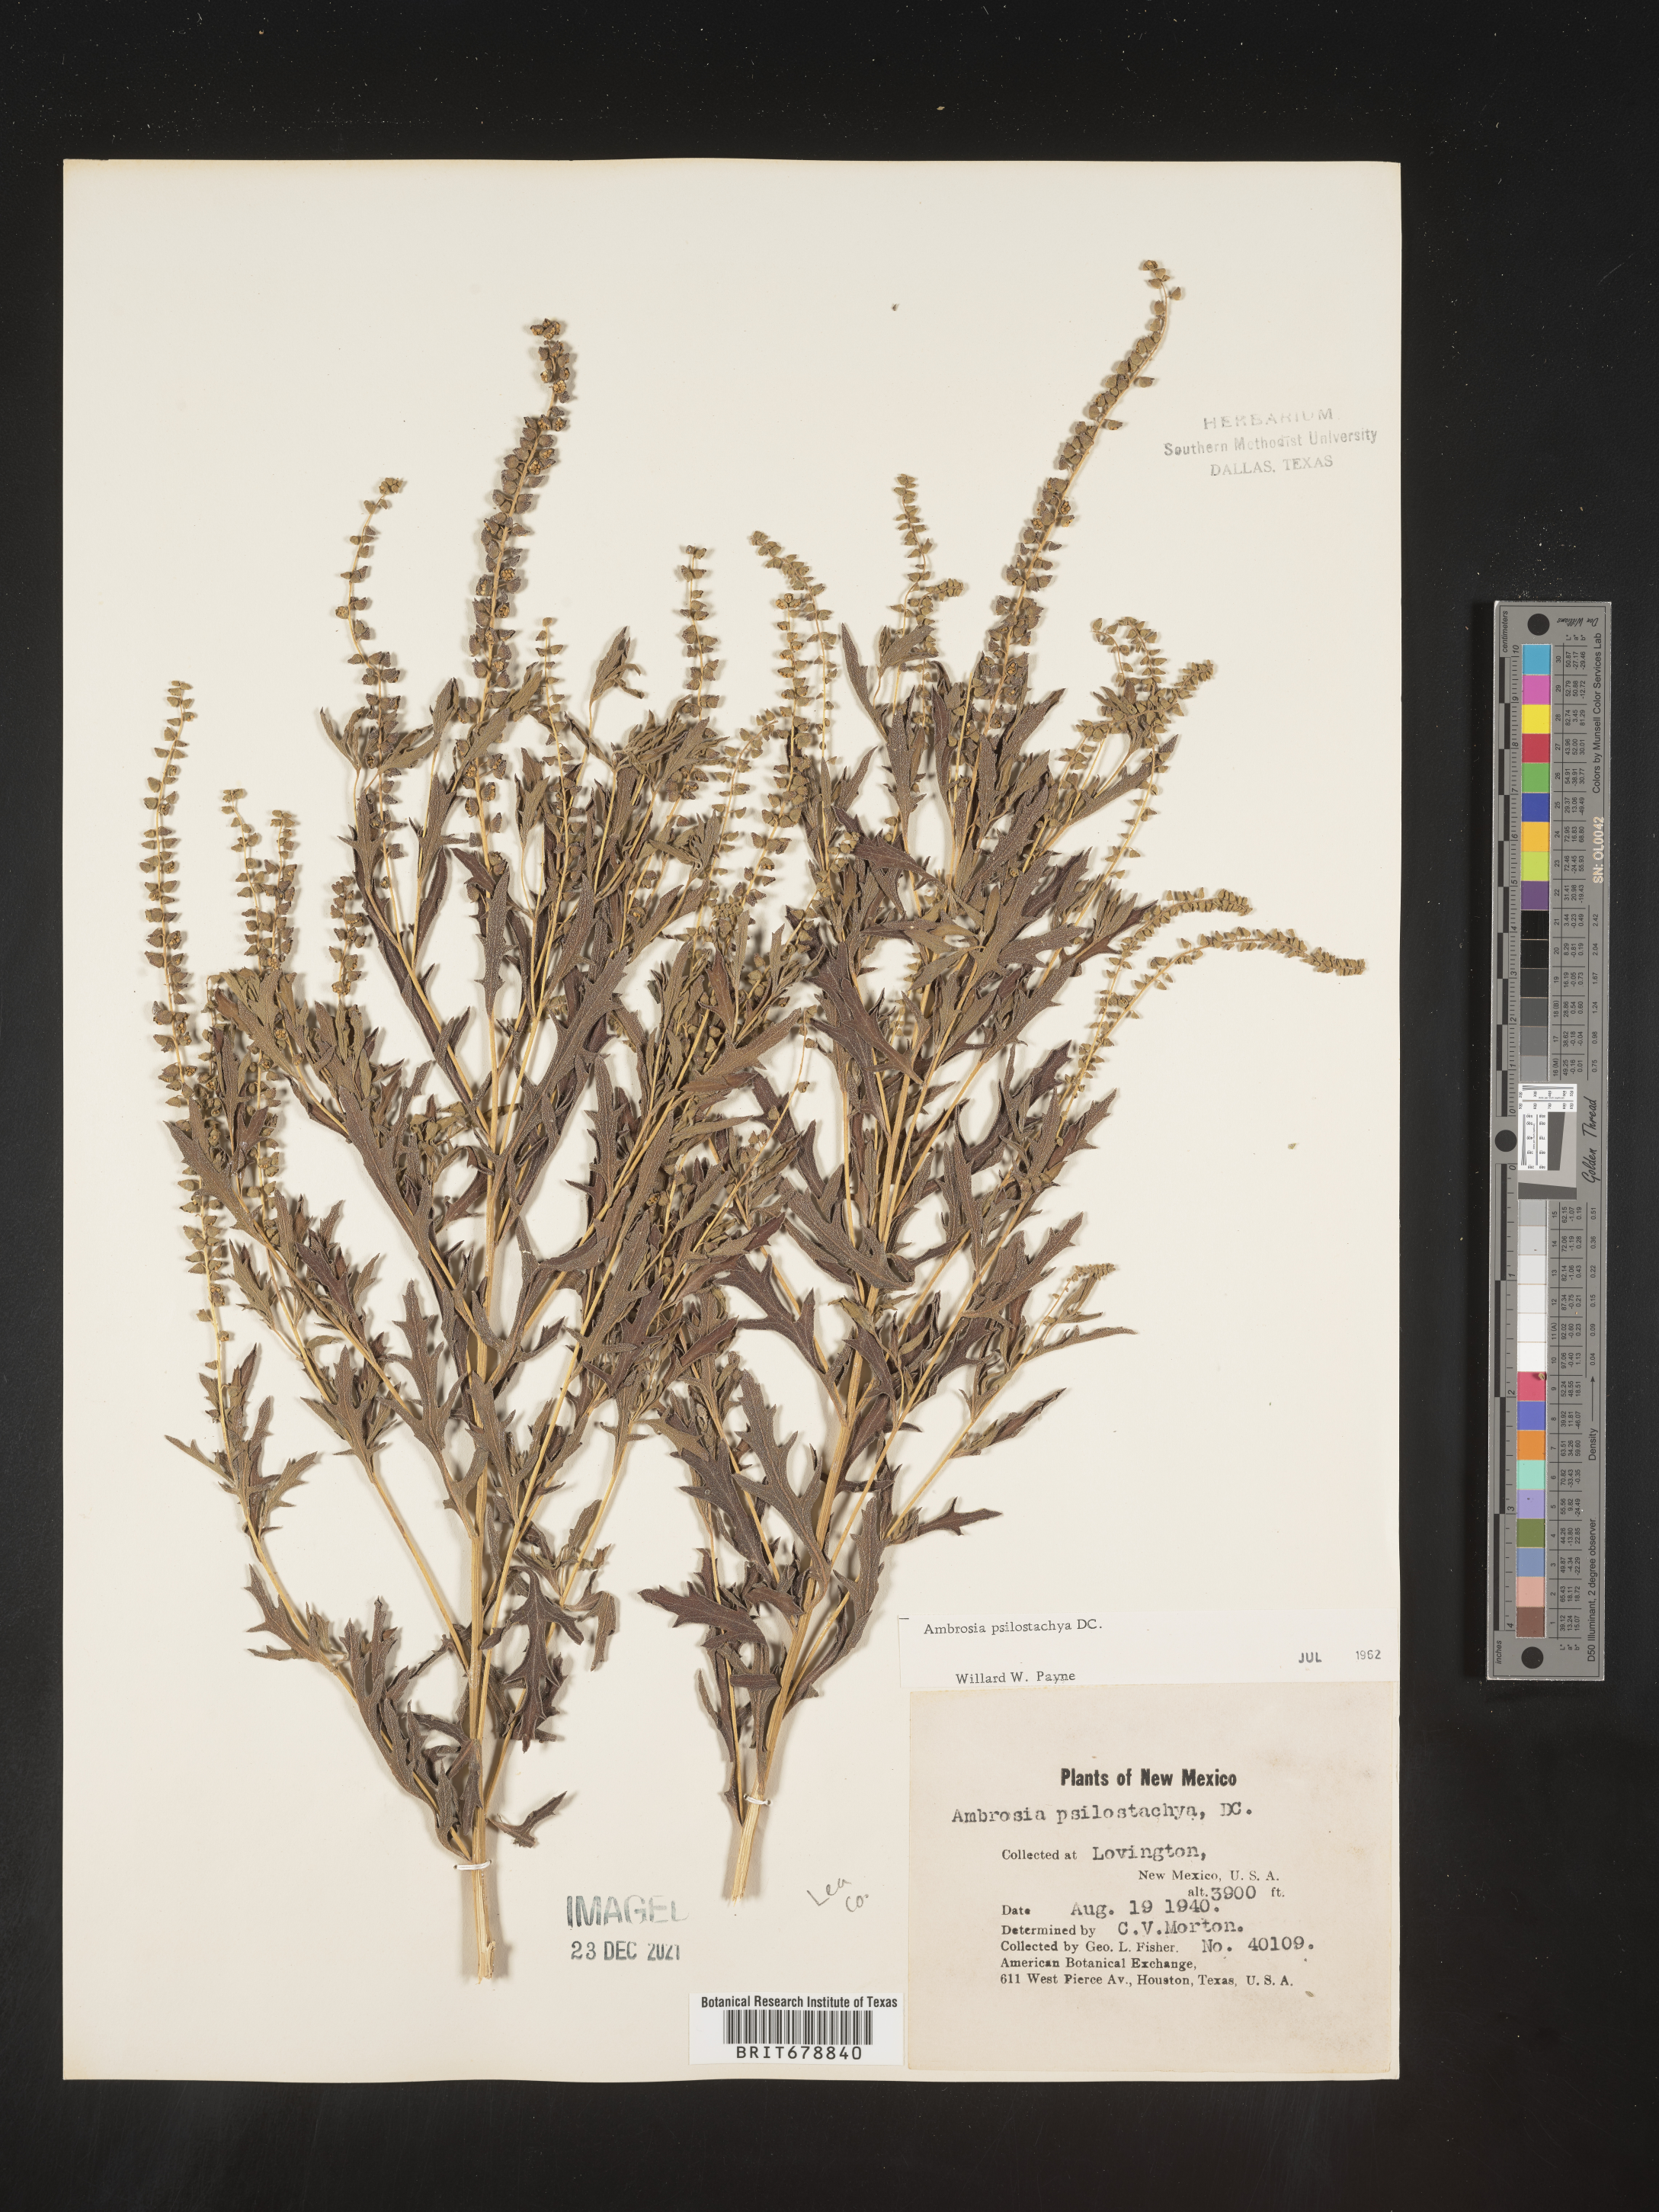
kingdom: Plantae
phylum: Tracheophyta
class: Magnoliopsida
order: Asterales
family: Asteraceae
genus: Ambrosia
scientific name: Ambrosia psilostachya
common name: Perennial ragweed
